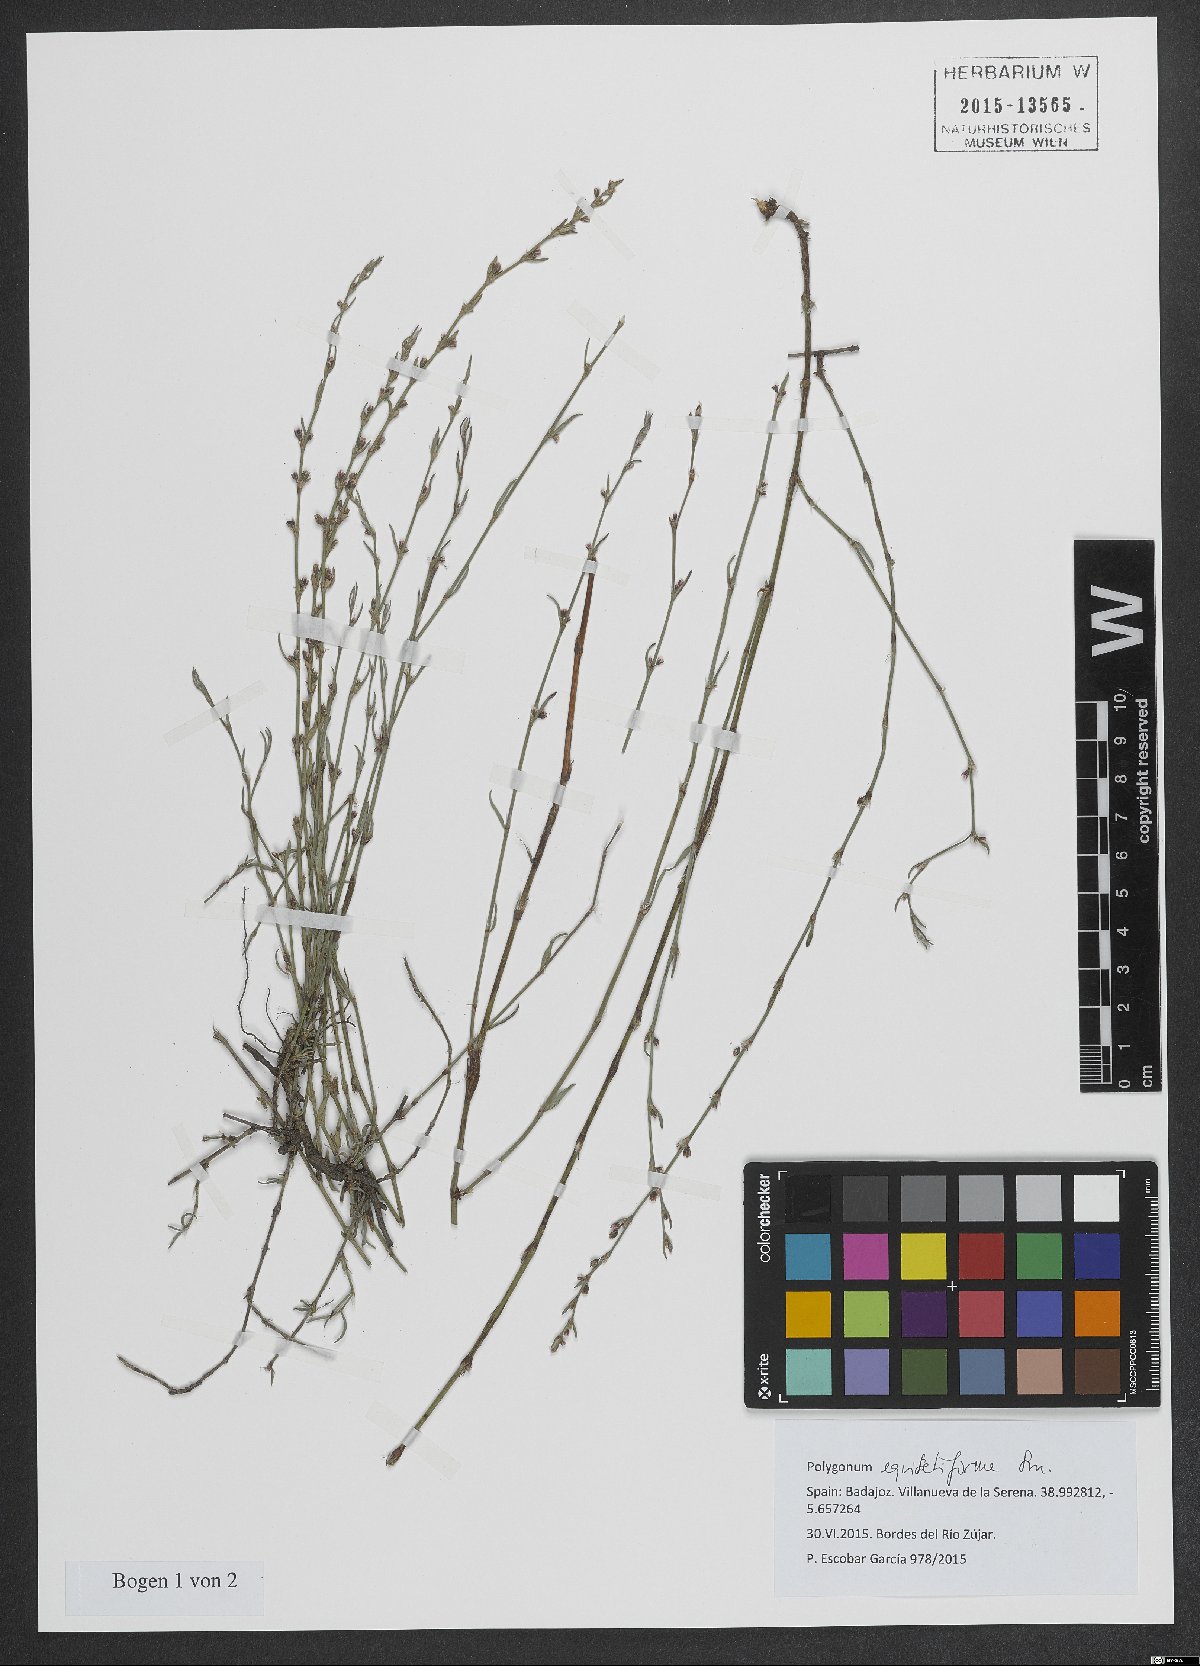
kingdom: Plantae
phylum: Tracheophyta
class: Magnoliopsida
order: Caryophyllales
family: Polygonaceae
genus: Polygonum
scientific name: Polygonum equisetiforme
